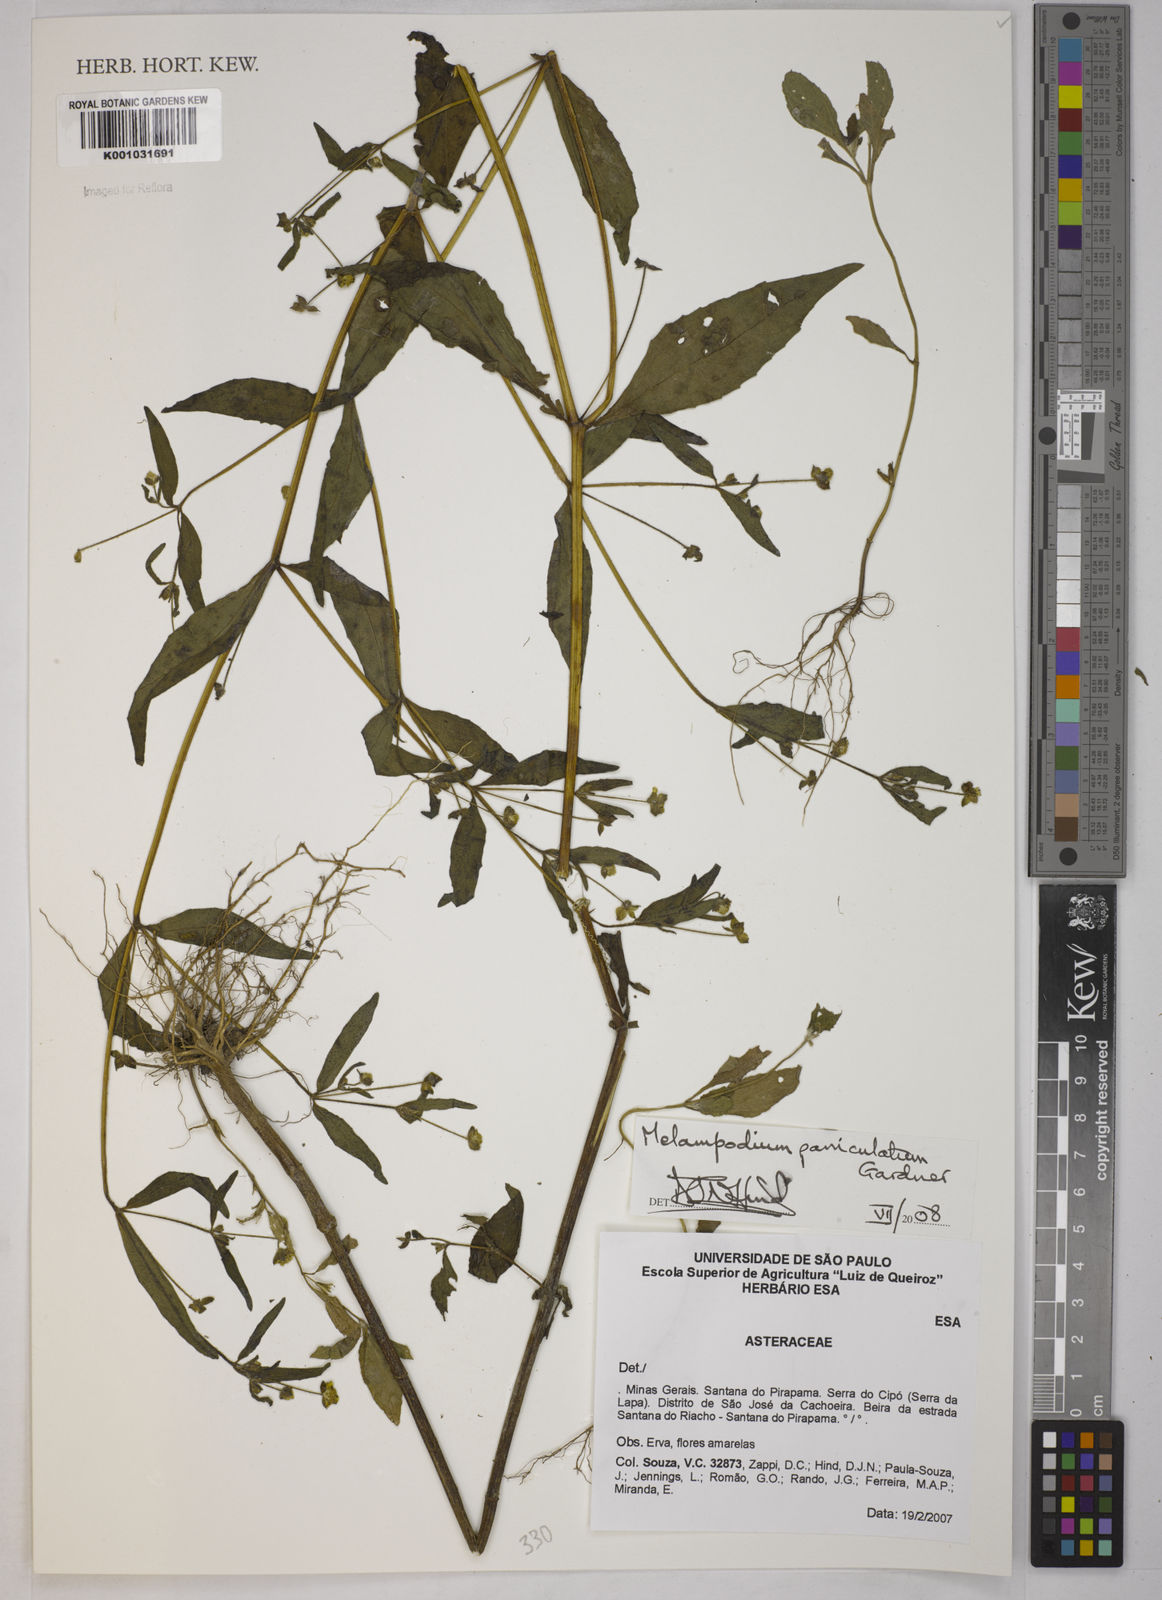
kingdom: Plantae
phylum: Tracheophyta
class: Magnoliopsida
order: Asterales
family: Asteraceae
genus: Melampodium
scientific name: Melampodium paniculatum
